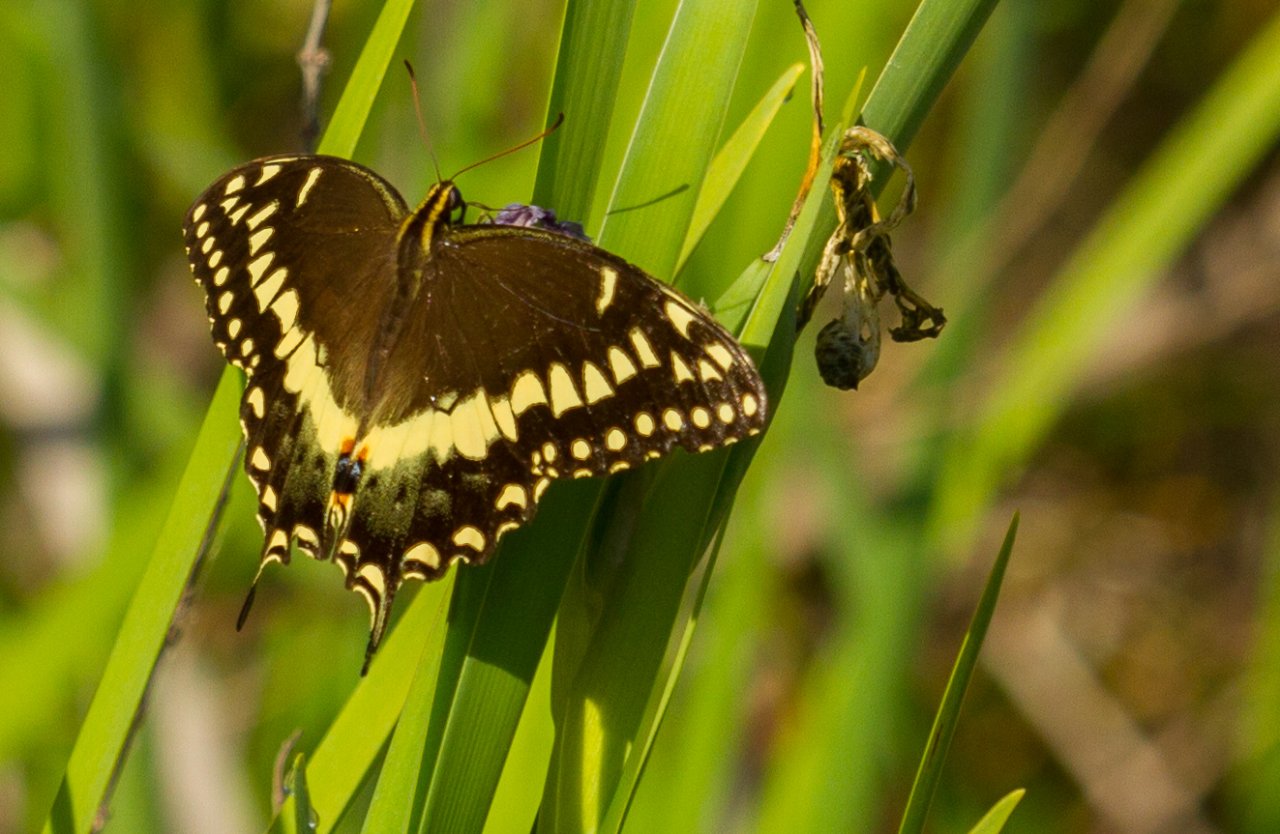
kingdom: Animalia
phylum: Arthropoda
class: Insecta
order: Lepidoptera
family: Papilionidae
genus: Pterourus
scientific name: Pterourus palamedes
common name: Palamedes Swallowtail
